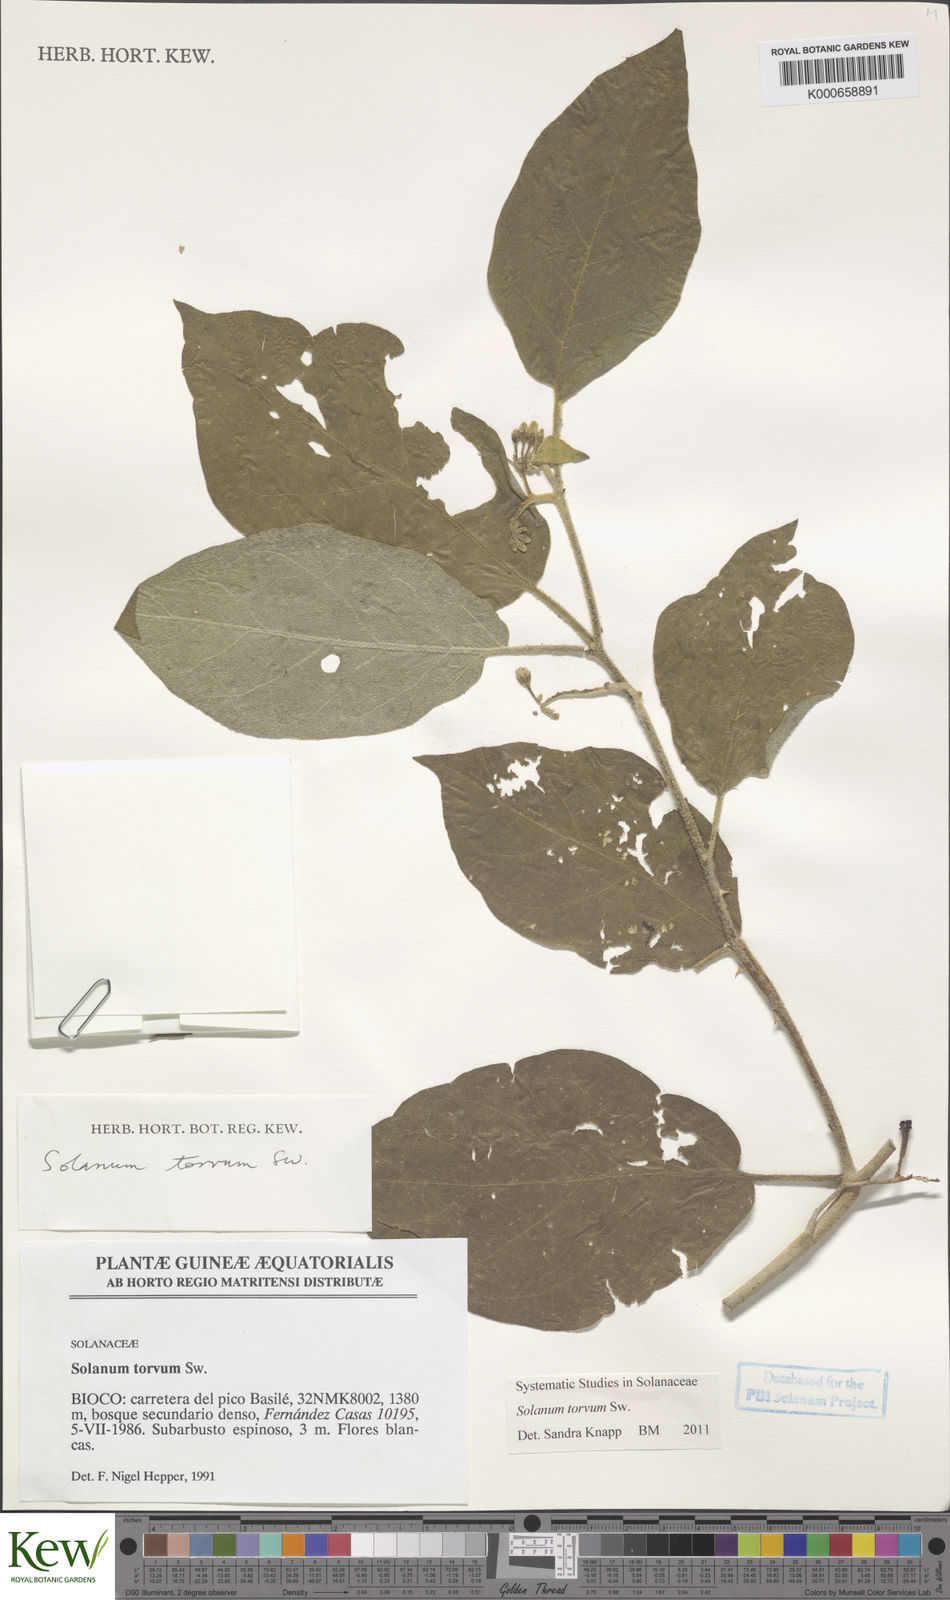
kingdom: Plantae
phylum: Tracheophyta
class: Magnoliopsida
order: Solanales
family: Solanaceae
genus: Solanum
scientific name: Solanum torvum
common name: Turkey berry
